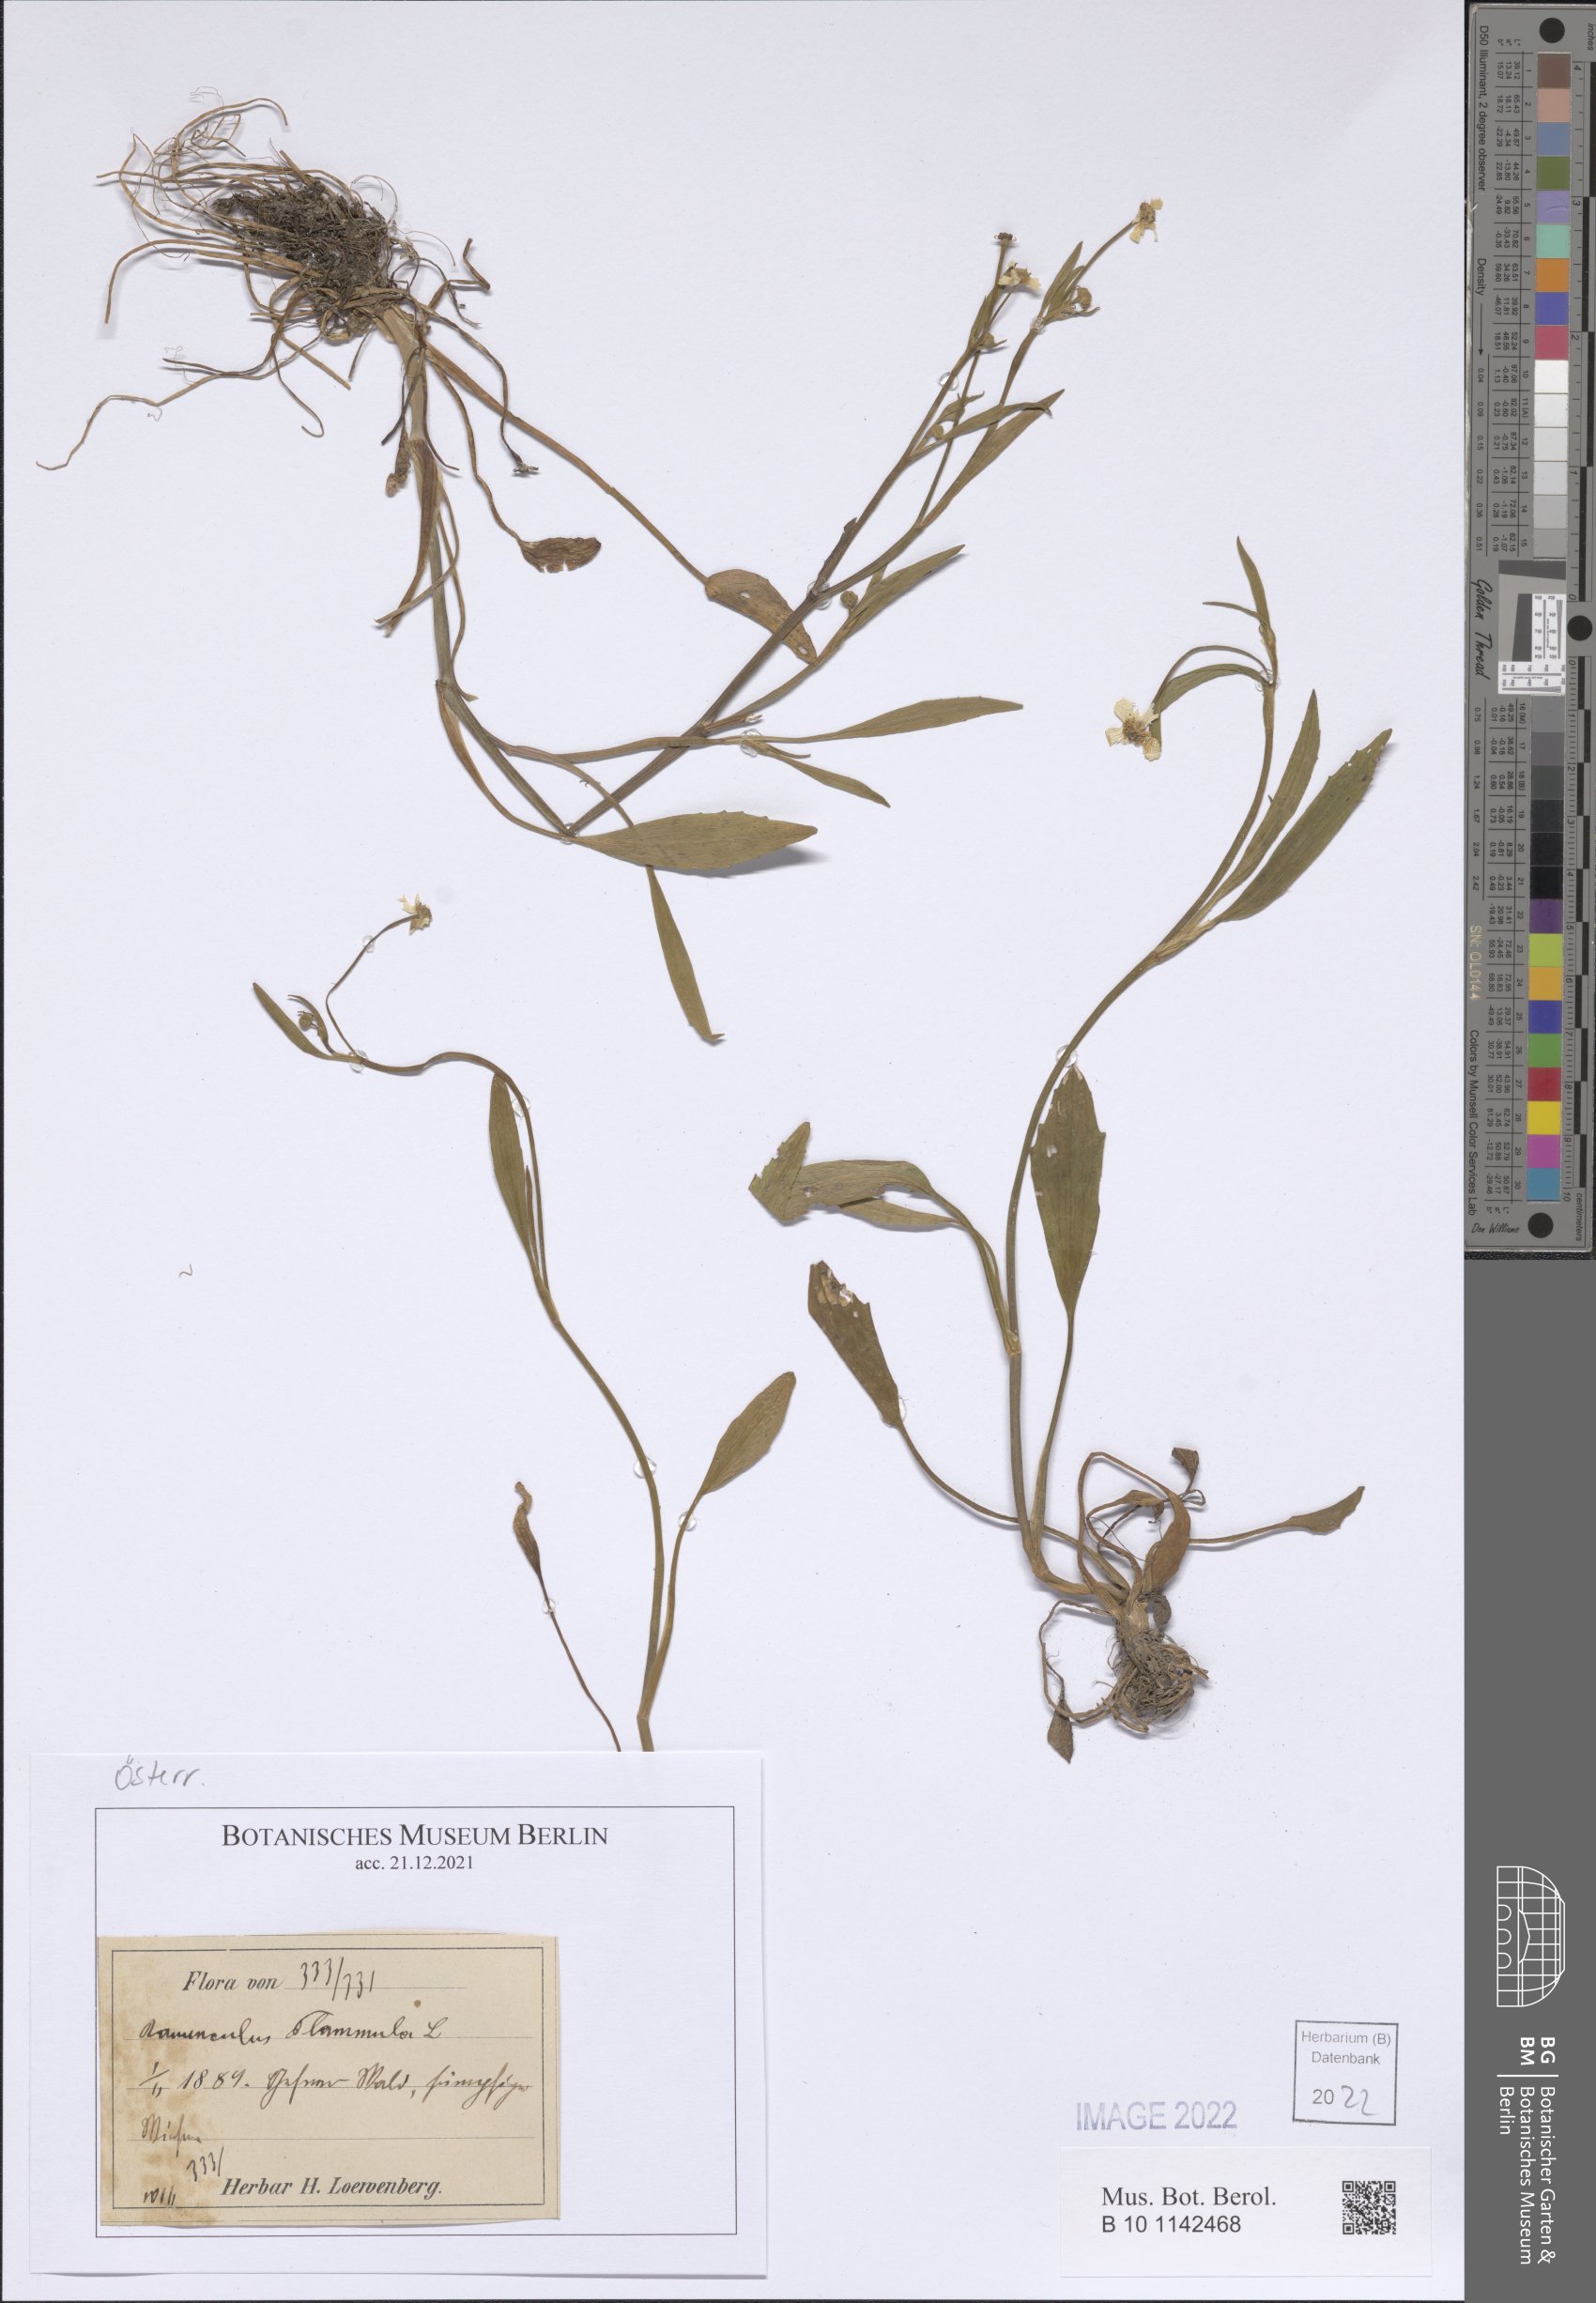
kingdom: Plantae
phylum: Tracheophyta
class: Magnoliopsida
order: Ranunculales
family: Ranunculaceae
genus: Ranunculus
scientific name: Ranunculus flammula
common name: Lesser spearwort
